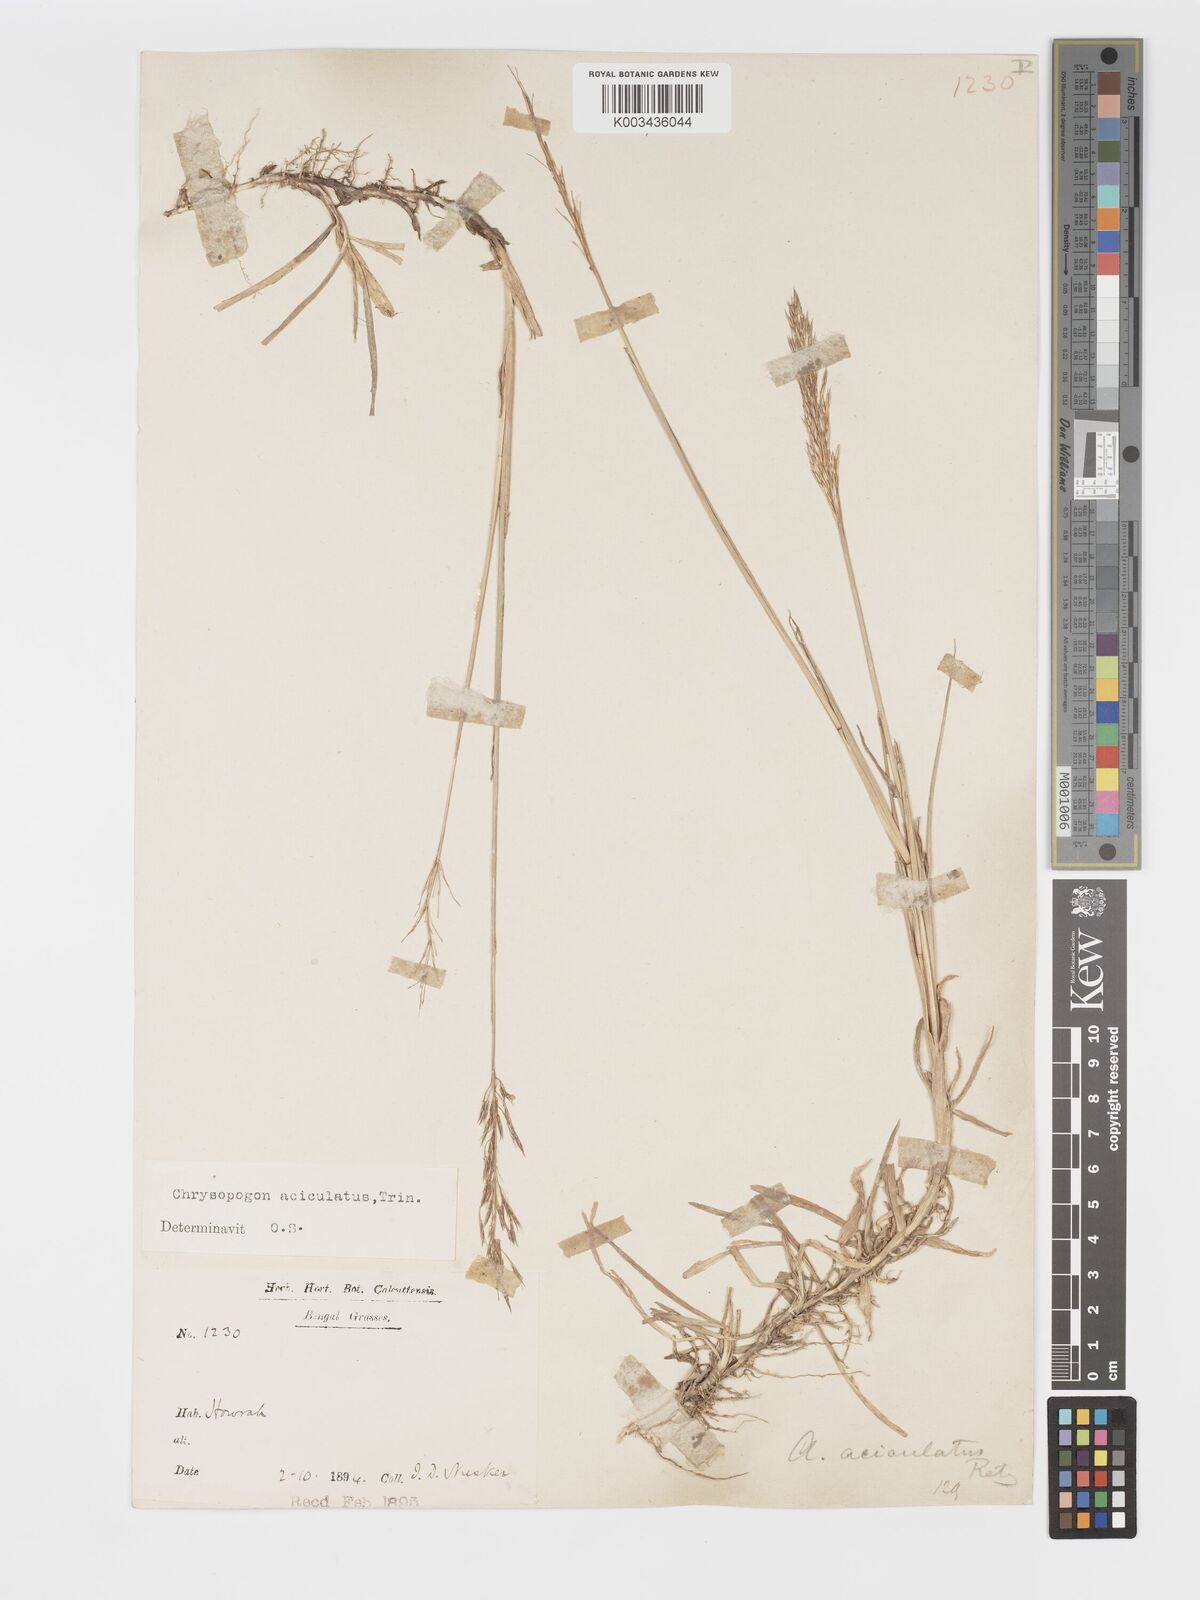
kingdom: Plantae
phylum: Tracheophyta
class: Liliopsida
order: Poales
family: Poaceae
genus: Chrysopogon
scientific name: Chrysopogon aciculatus
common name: Pilipiliula
